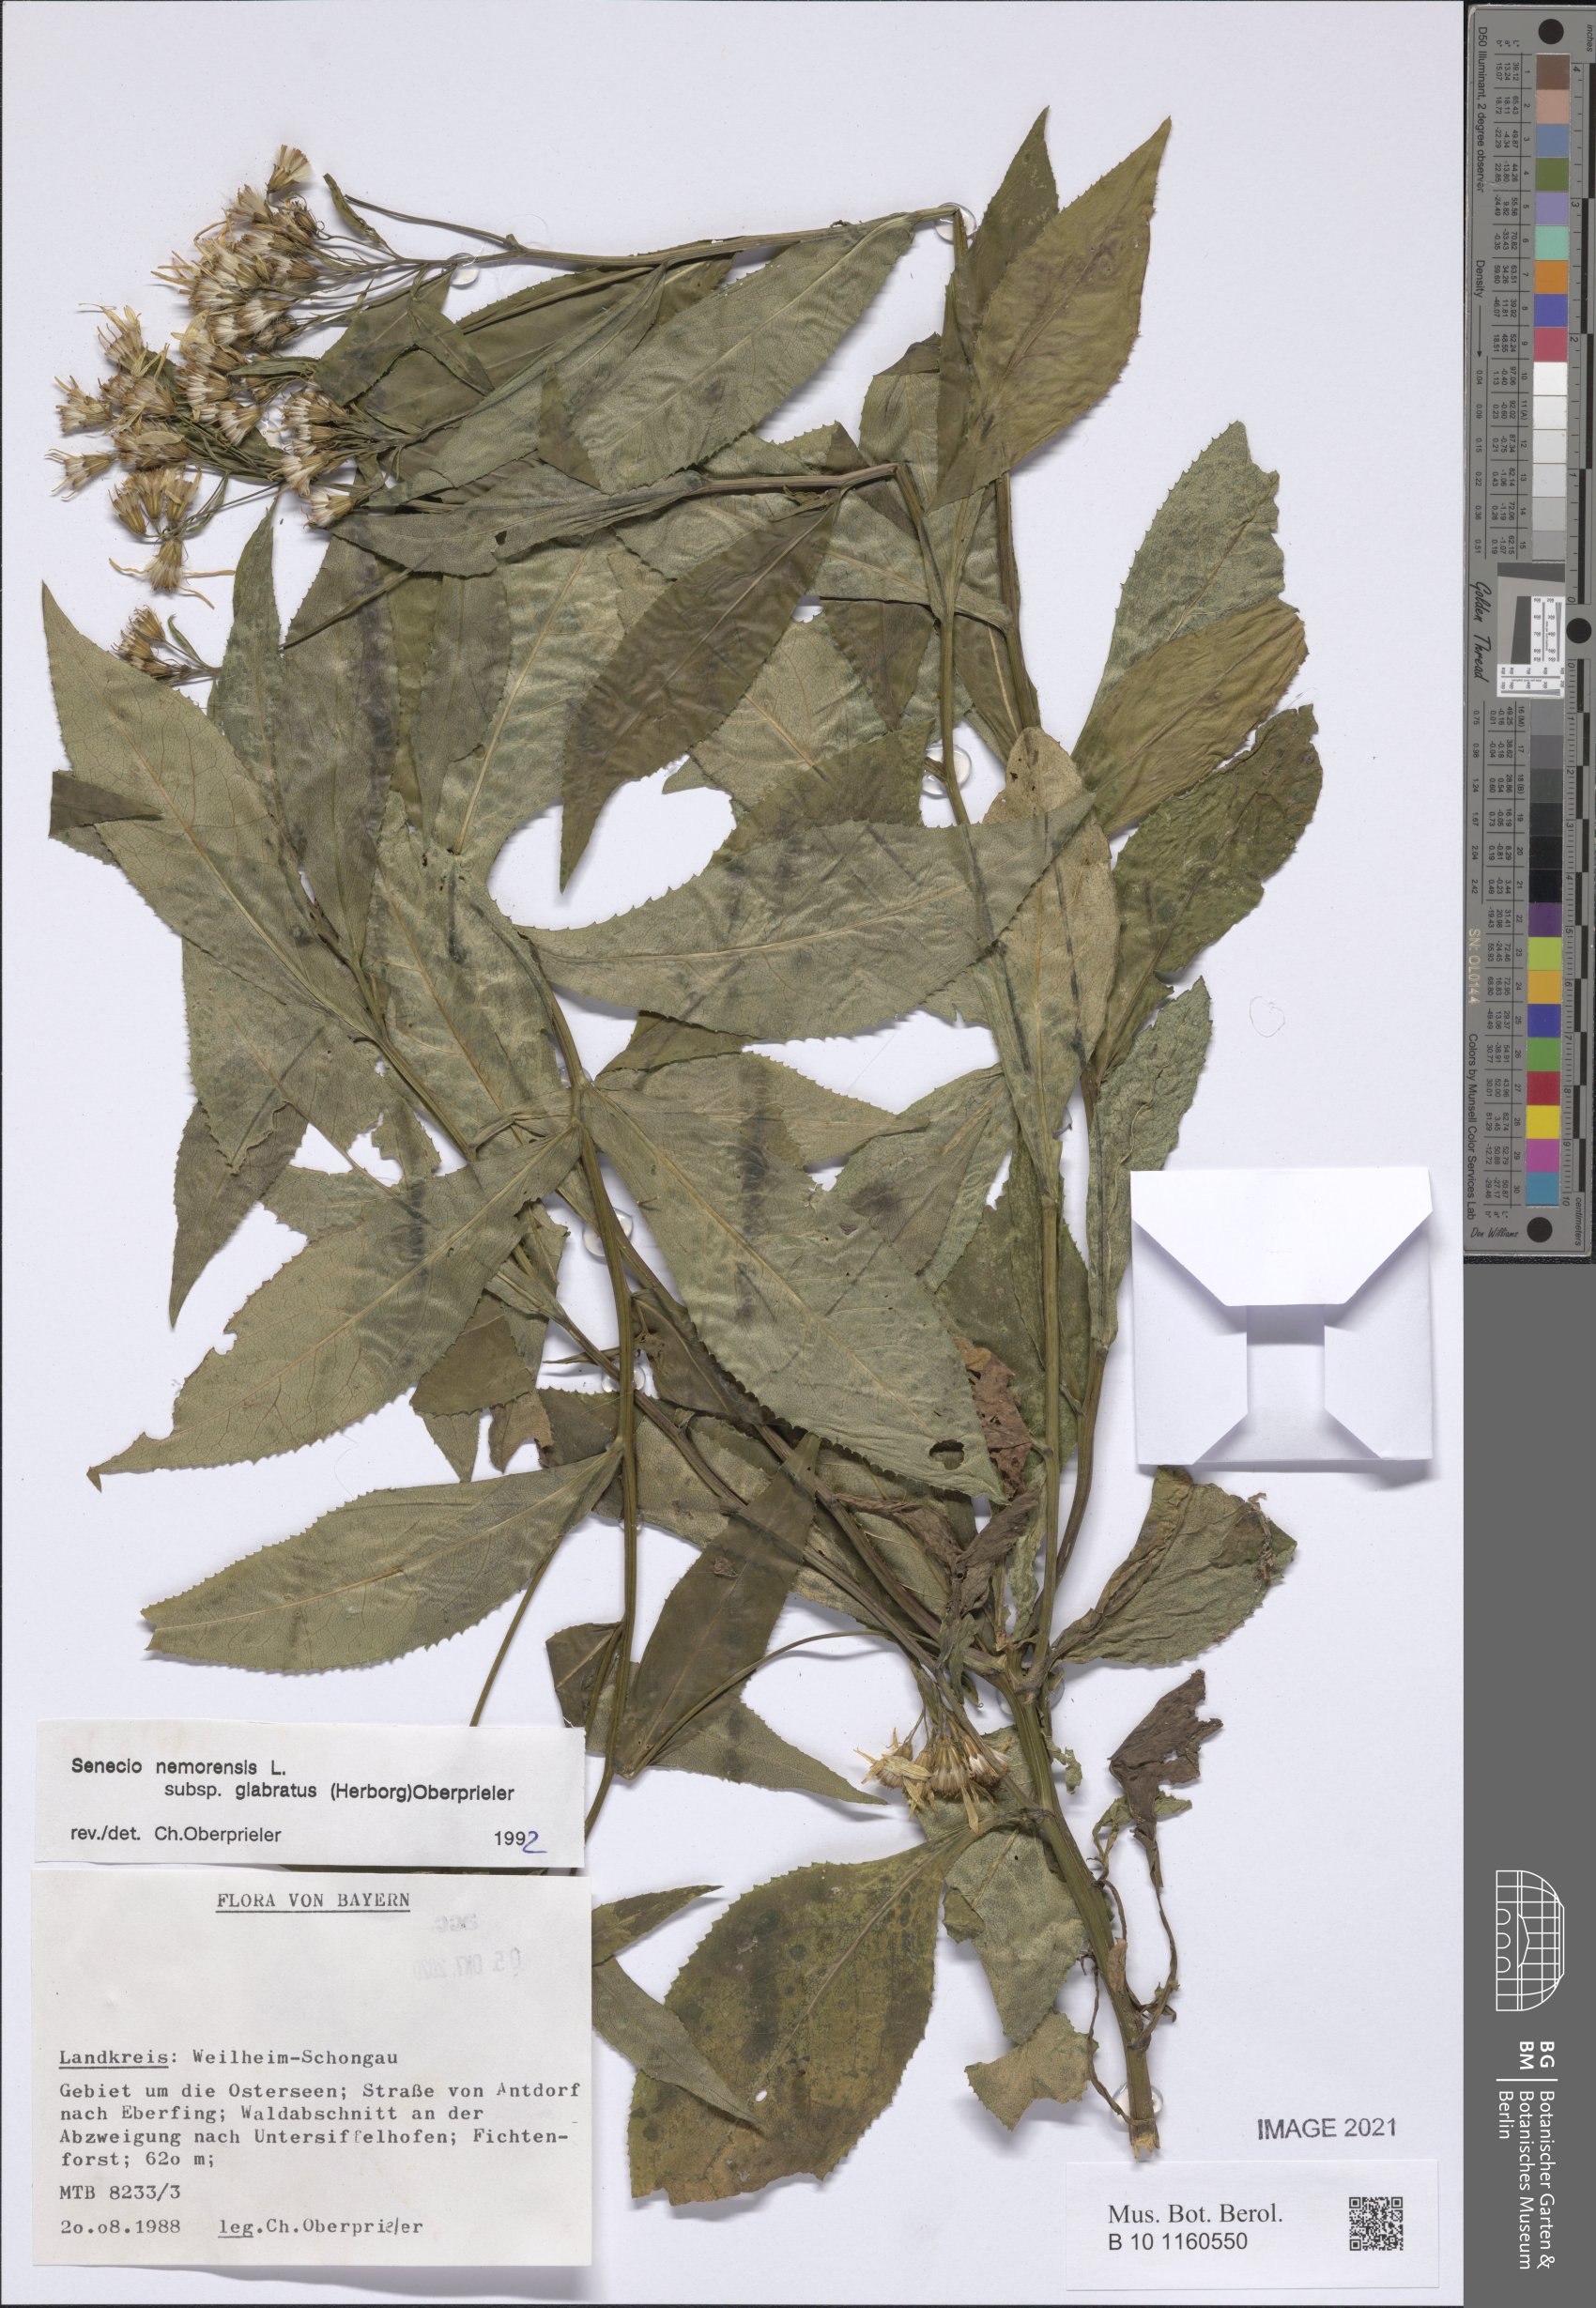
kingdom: Plantae
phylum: Tracheophyta
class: Magnoliopsida
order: Asterales
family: Asteraceae
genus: Senecio
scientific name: Senecio germanicus
